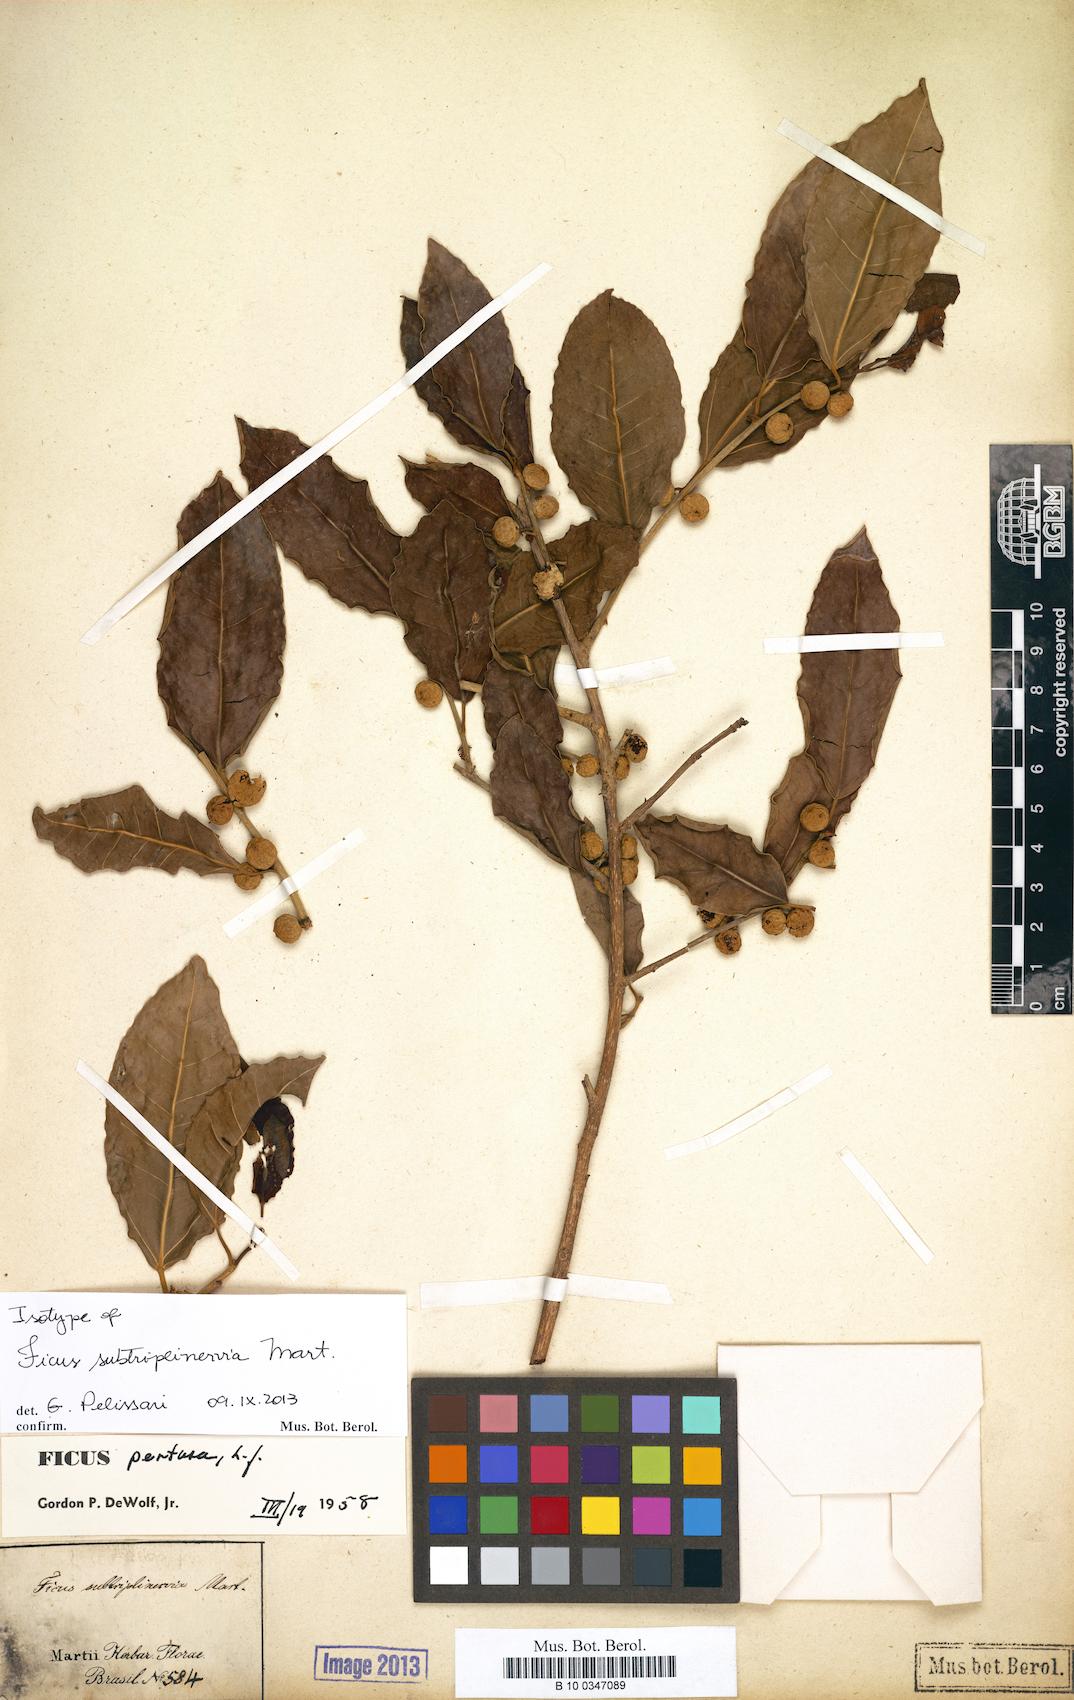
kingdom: Plantae
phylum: Tracheophyta
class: Magnoliopsida
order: Rosales
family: Moraceae
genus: Ficus
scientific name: Ficus pertusa
